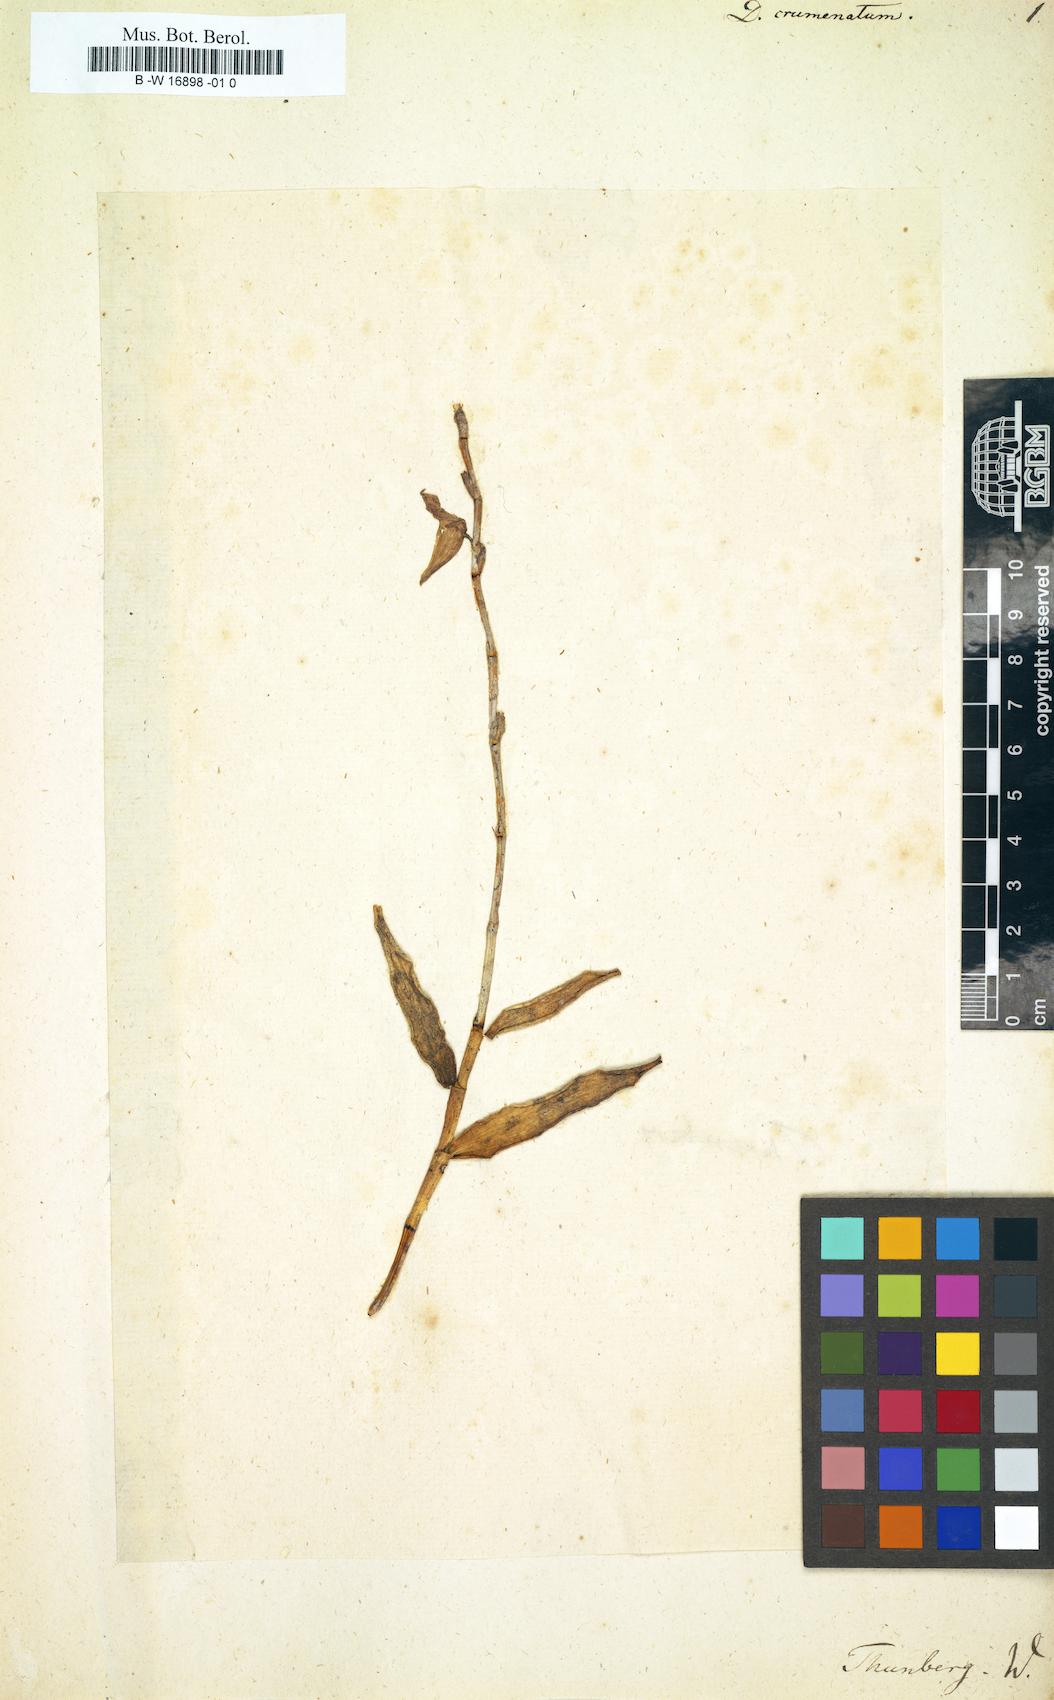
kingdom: Plantae
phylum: Tracheophyta
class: Liliopsida
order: Asparagales
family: Orchidaceae
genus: Dendrobium
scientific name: Dendrobium crumenatum
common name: Orchid
